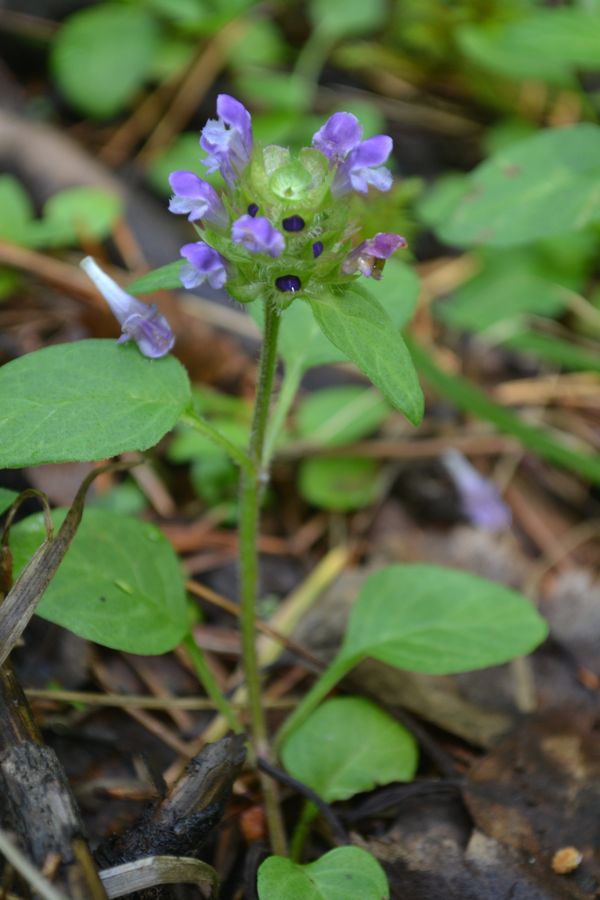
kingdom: Plantae
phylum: Tracheophyta
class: Magnoliopsida
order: Lamiales
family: Lamiaceae
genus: Prunella
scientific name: Prunella vulgaris
